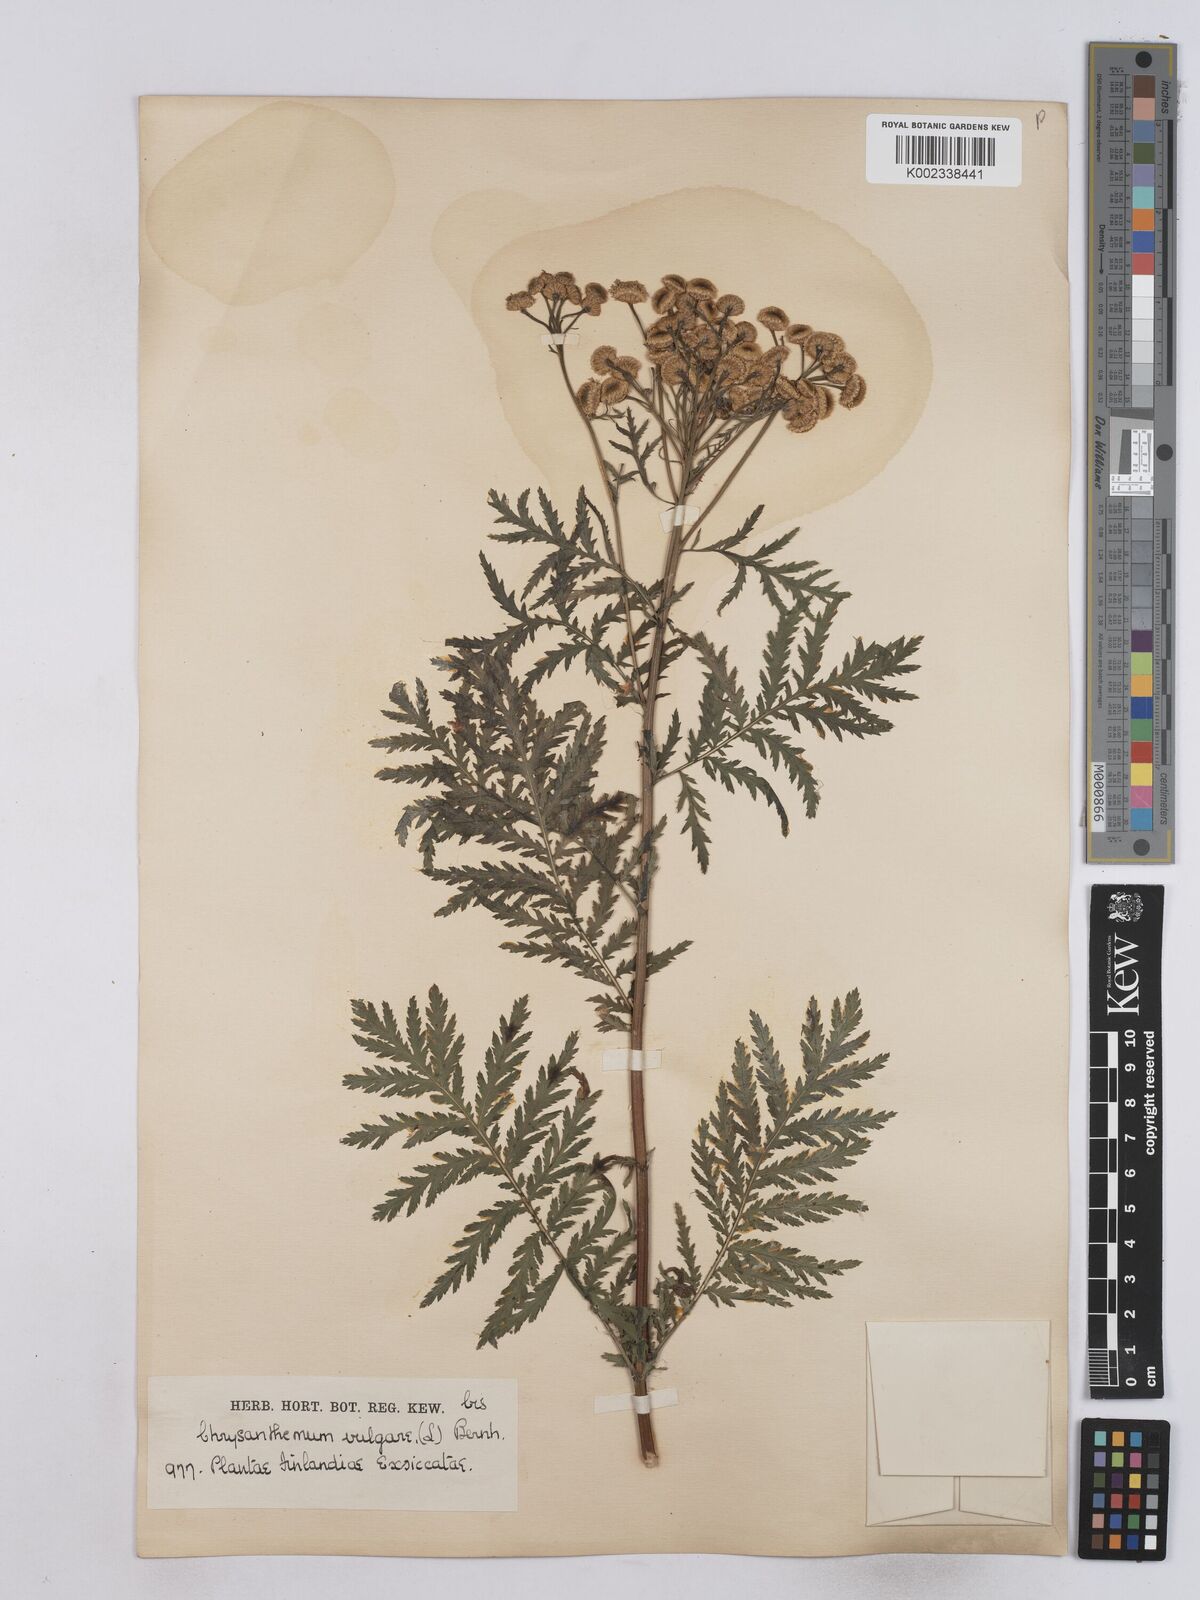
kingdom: Plantae
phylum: Tracheophyta
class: Magnoliopsida
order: Asterales
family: Asteraceae
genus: Tanacetum
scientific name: Tanacetum vulgare
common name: Common tansy
